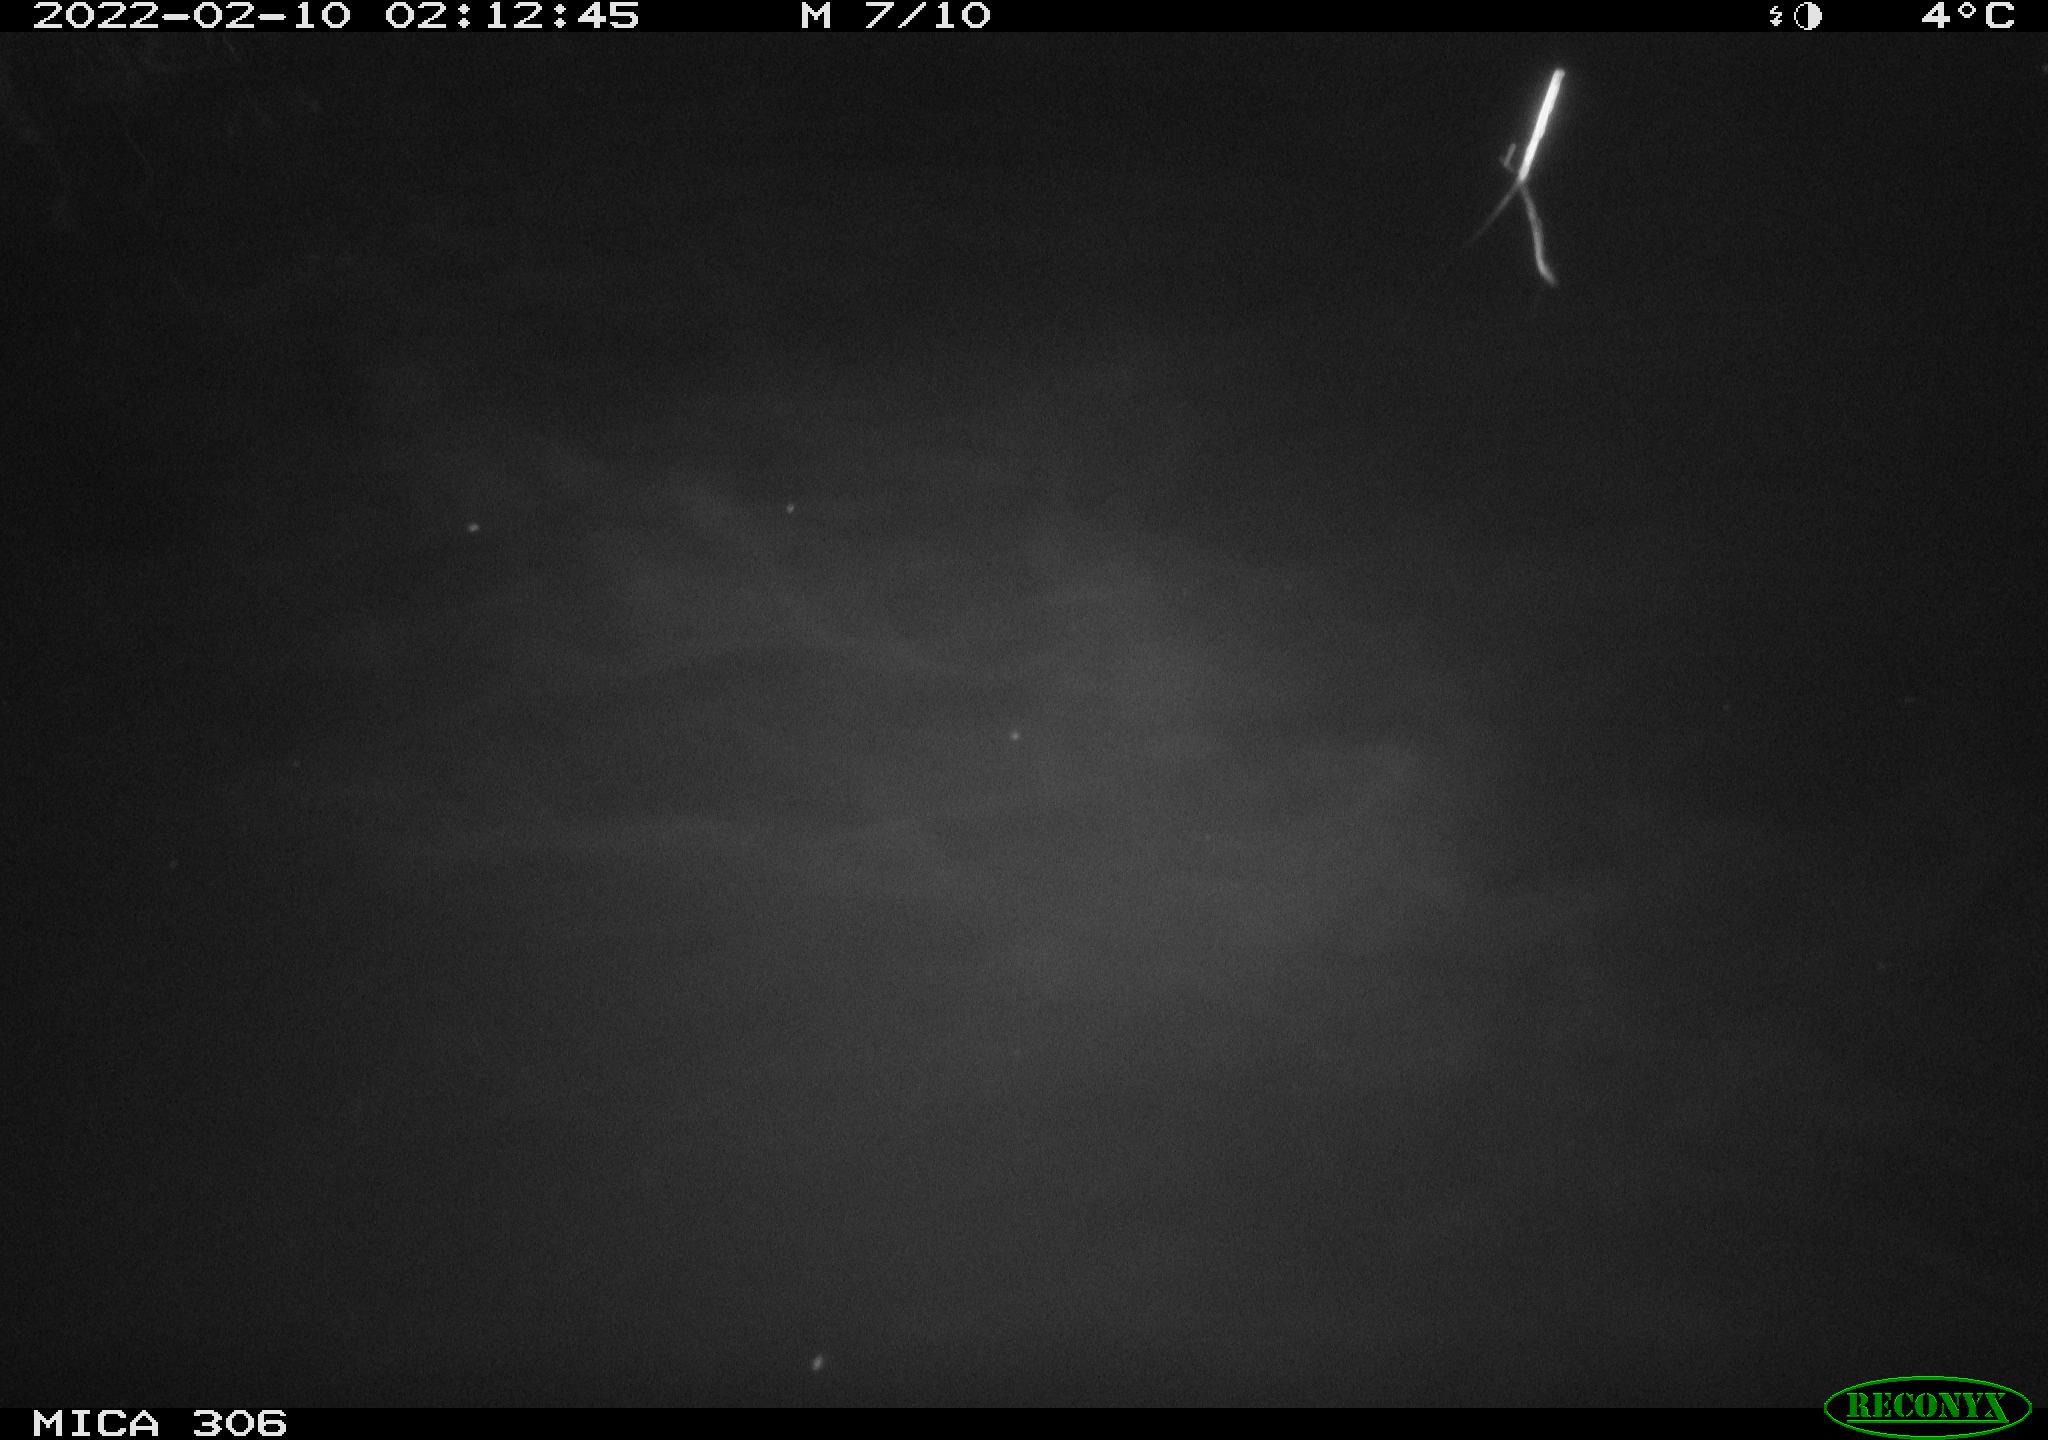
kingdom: Animalia
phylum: Chordata
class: Mammalia
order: Rodentia
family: Cricetidae
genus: Ondatra
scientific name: Ondatra zibethicus
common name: Muskrat
